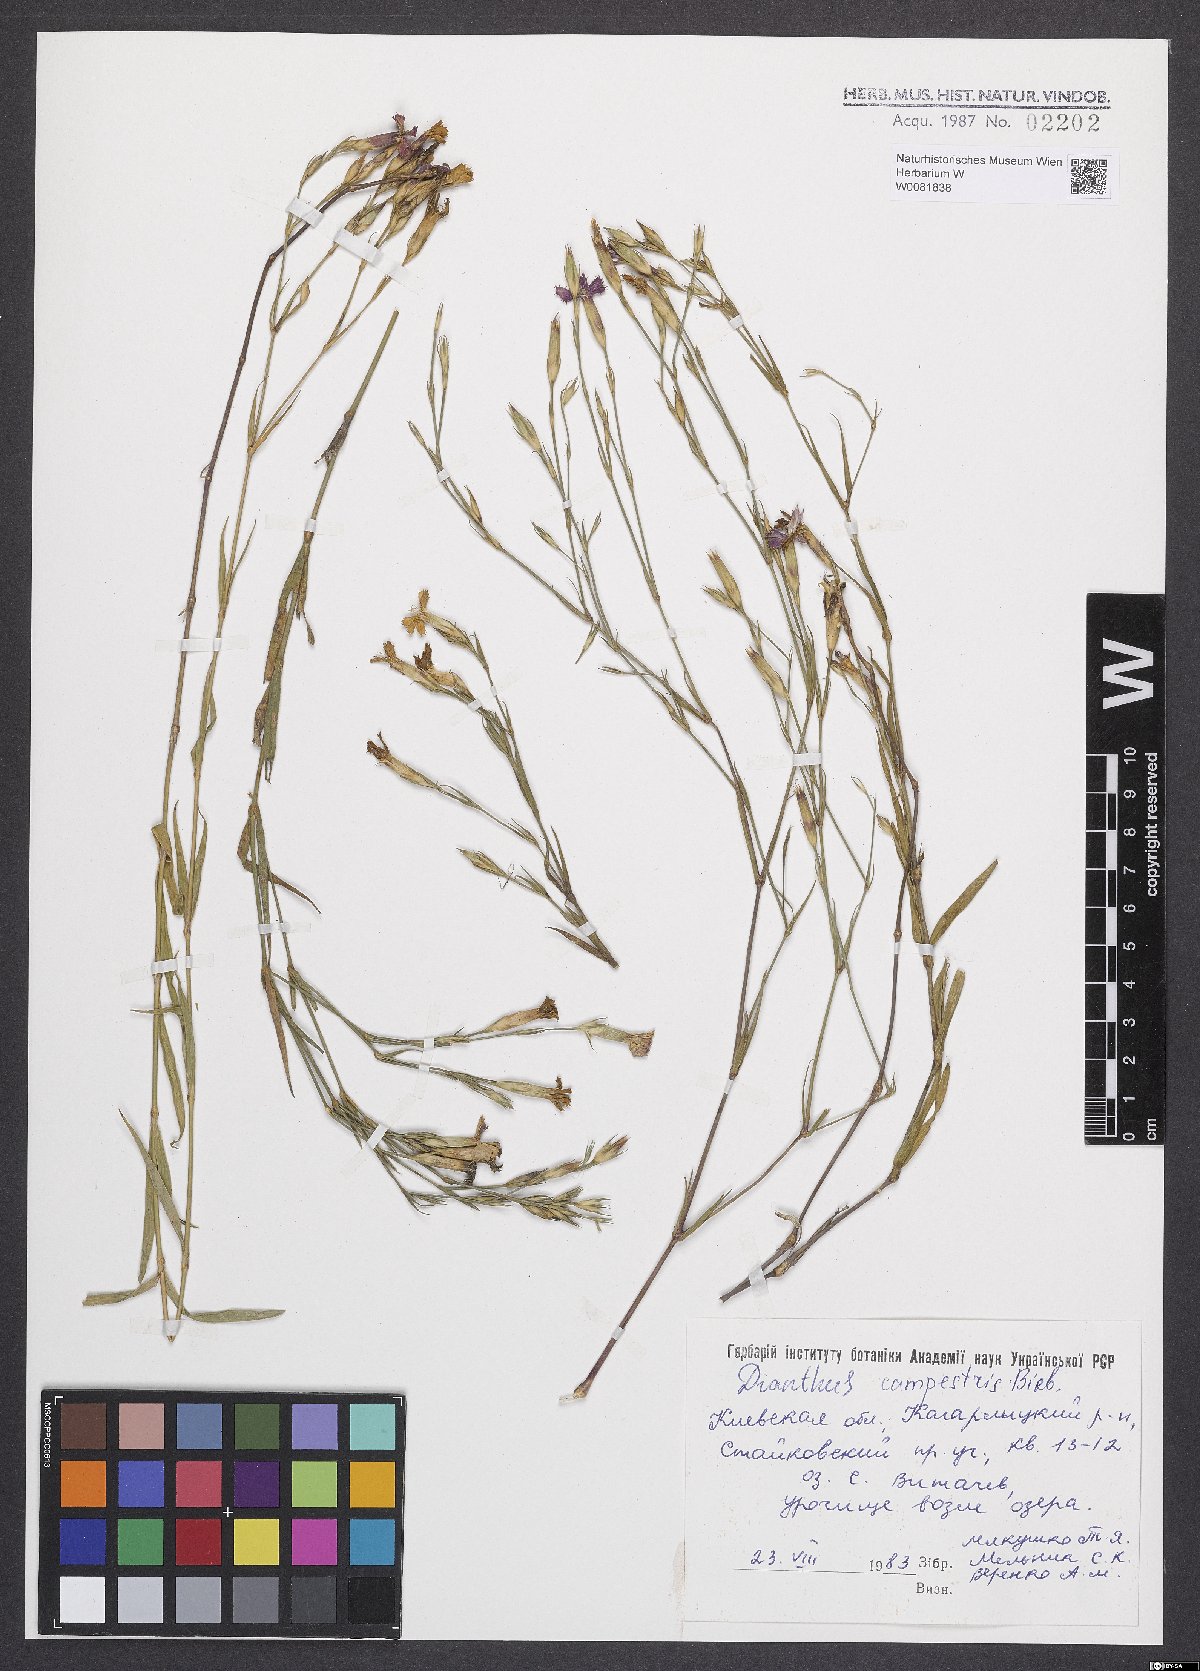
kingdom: Plantae
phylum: Tracheophyta
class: Magnoliopsida
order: Caryophyllales
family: Caryophyllaceae
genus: Dianthus
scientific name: Dianthus campestris
